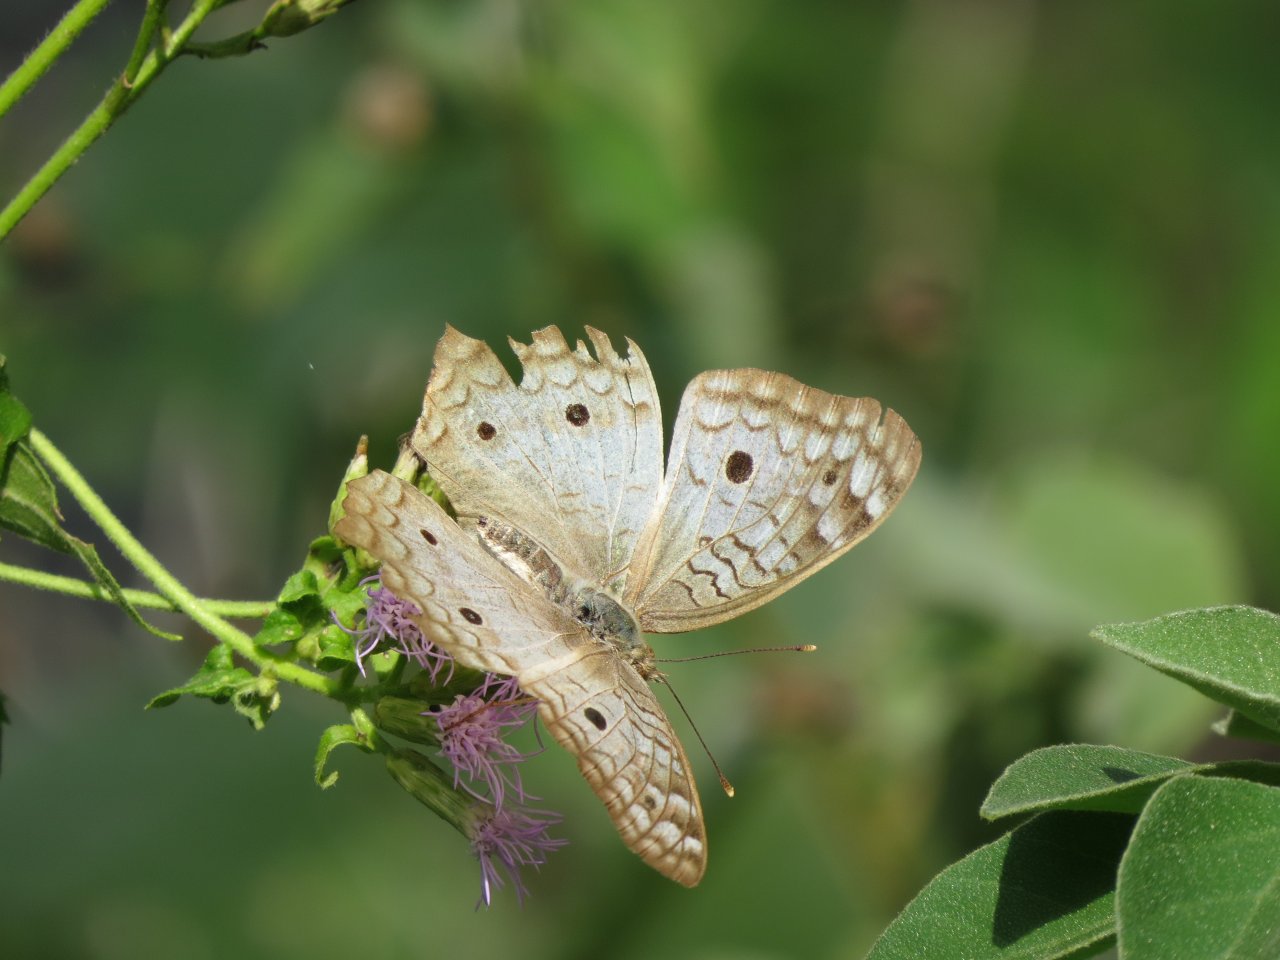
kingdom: Animalia
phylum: Arthropoda
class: Insecta
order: Lepidoptera
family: Nymphalidae
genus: Anartia
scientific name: Anartia jatrophae
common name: White Peacock
